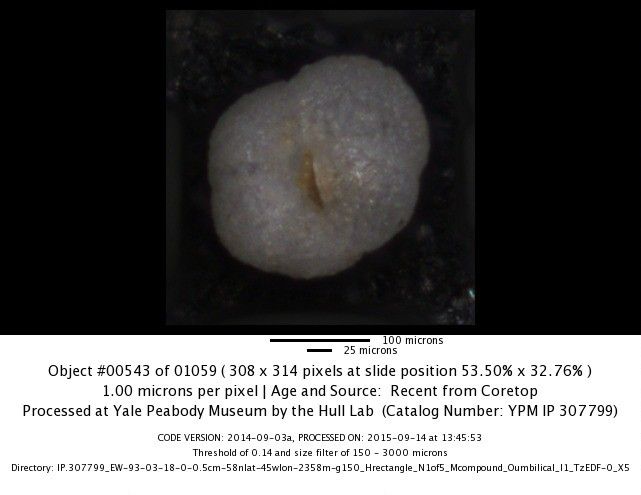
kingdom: Chromista
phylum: Foraminifera
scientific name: Foraminifera
